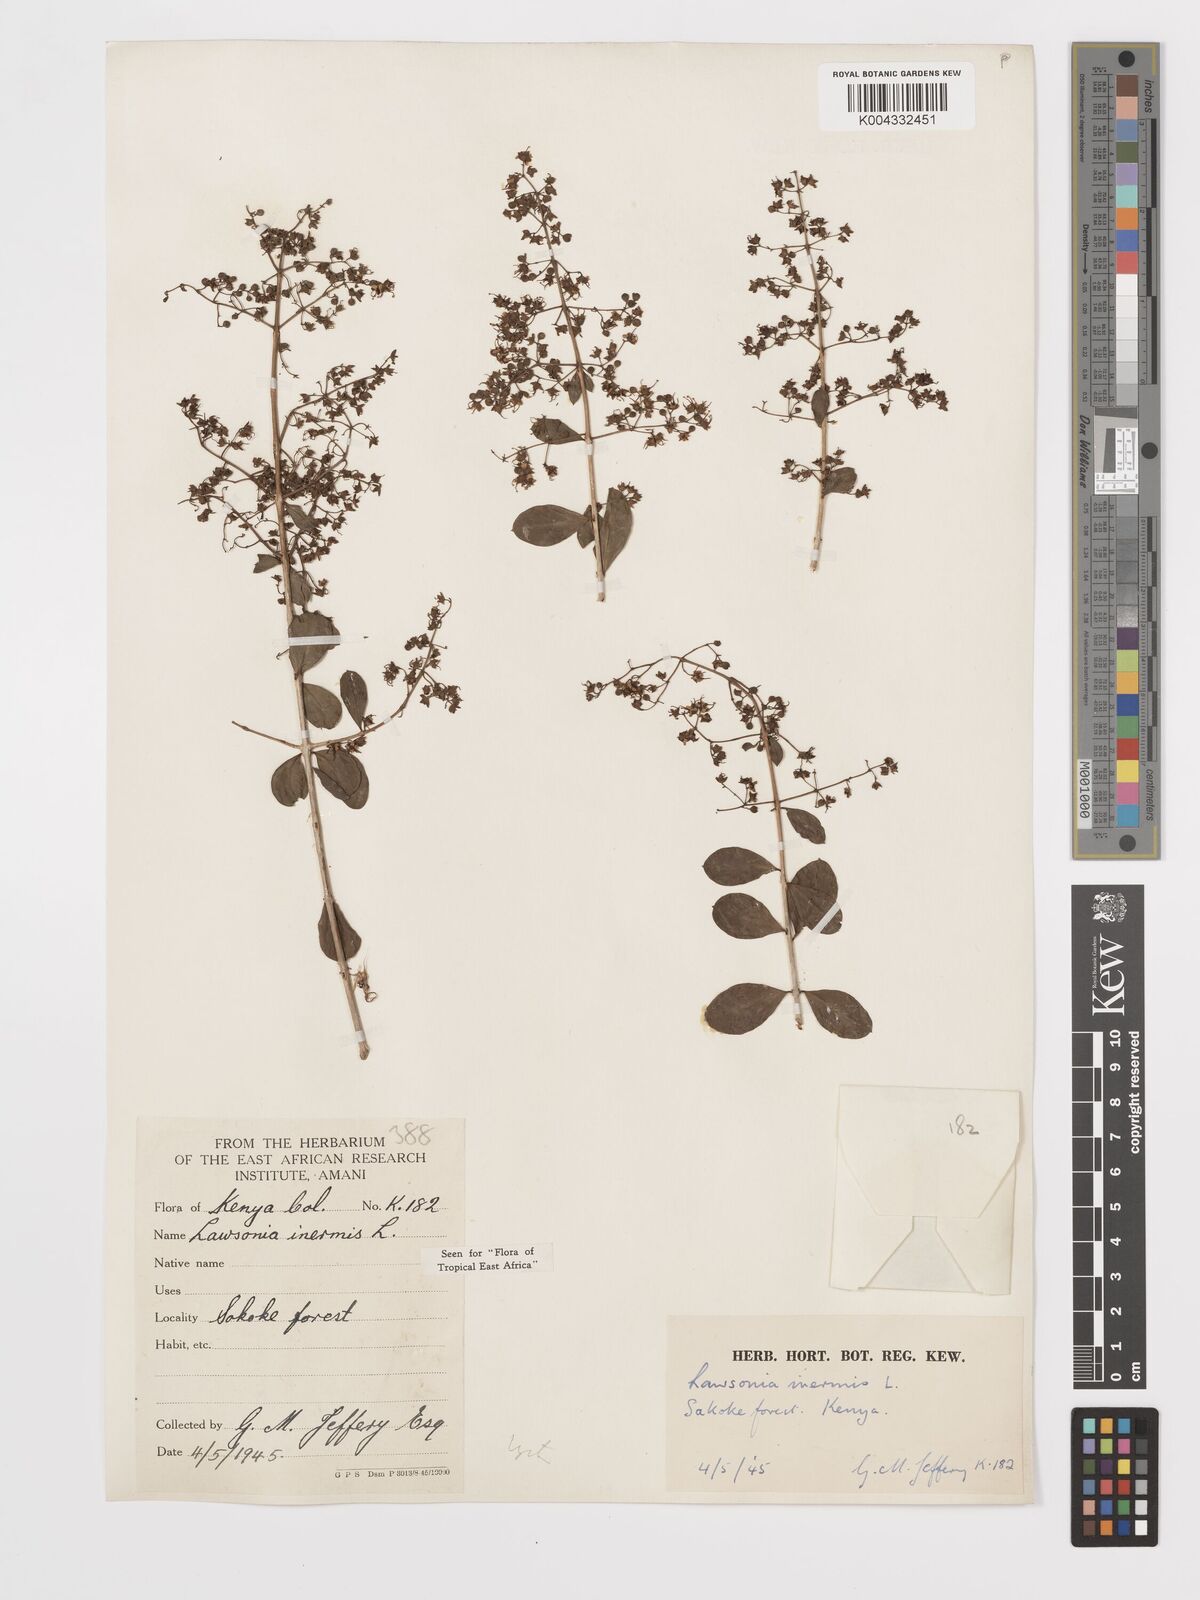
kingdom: Plantae
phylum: Tracheophyta
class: Magnoliopsida
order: Myrtales
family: Lythraceae
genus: Lawsonia
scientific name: Lawsonia inermis
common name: Henna
